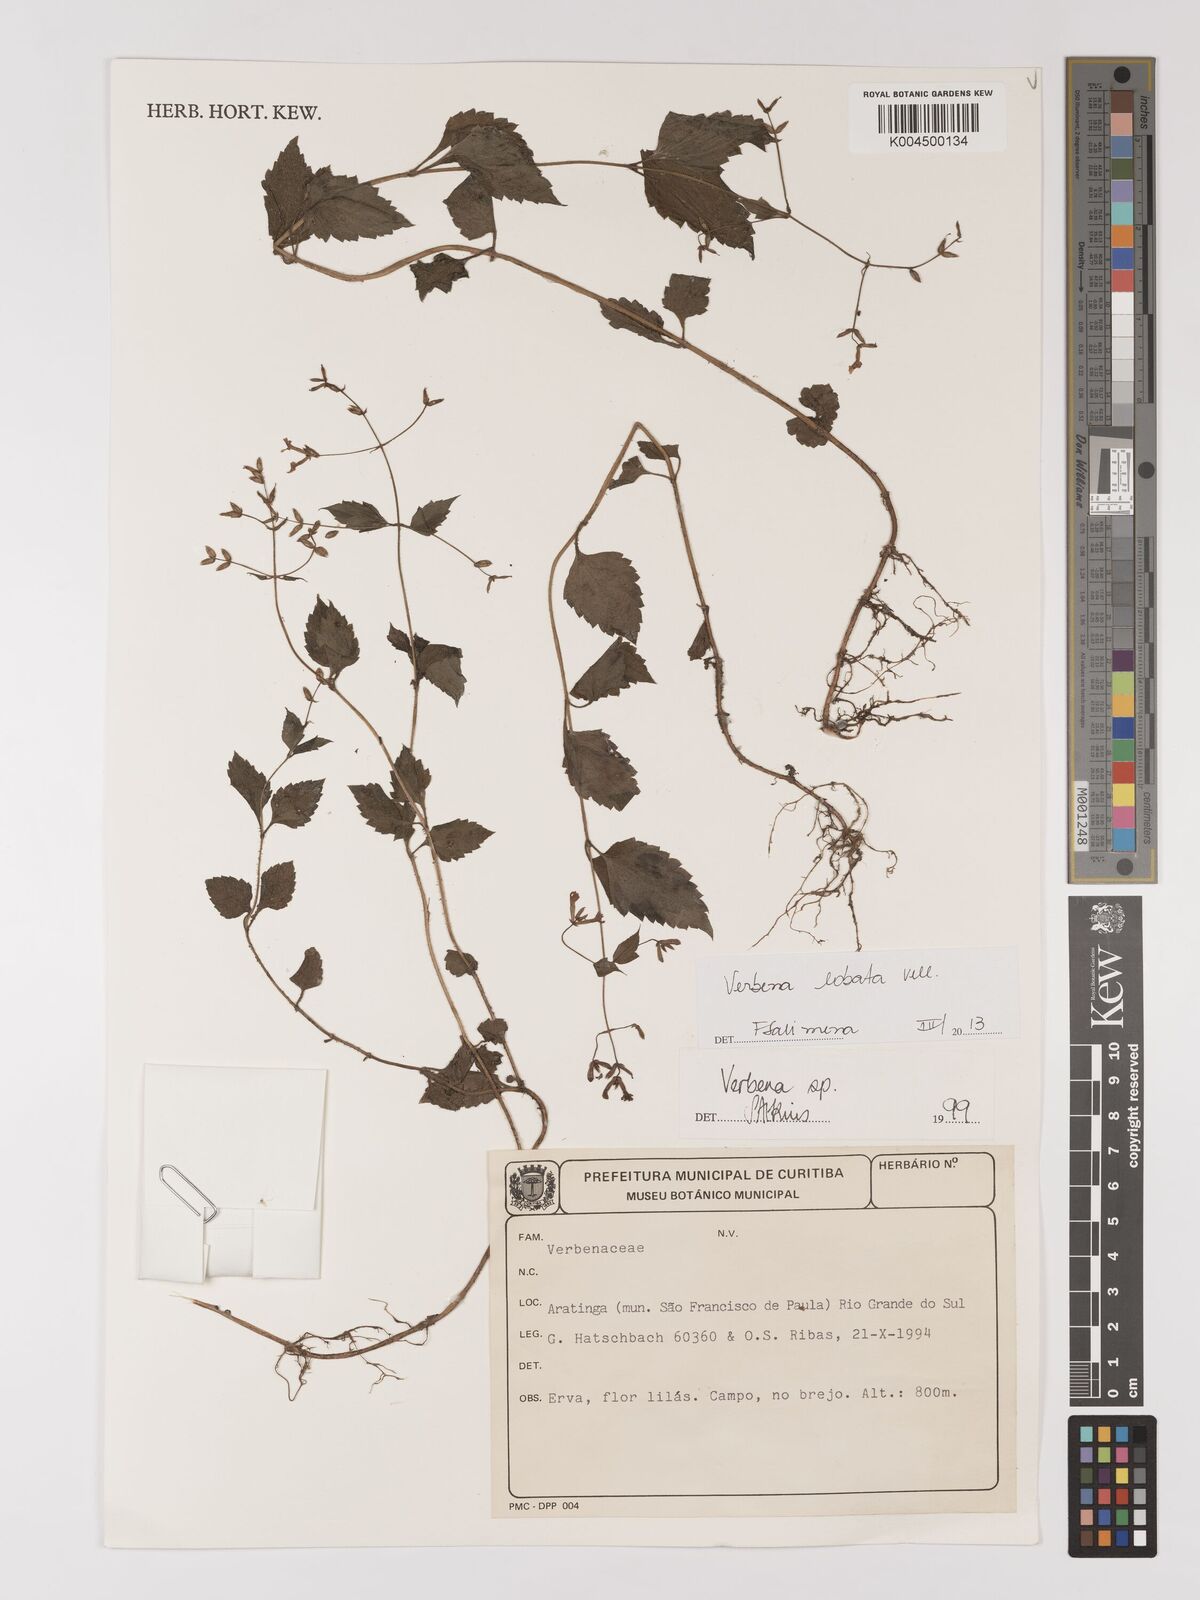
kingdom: Plantae
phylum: Tracheophyta
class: Magnoliopsida
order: Lamiales
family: Verbenaceae
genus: Verbena
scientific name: Verbena lobata
